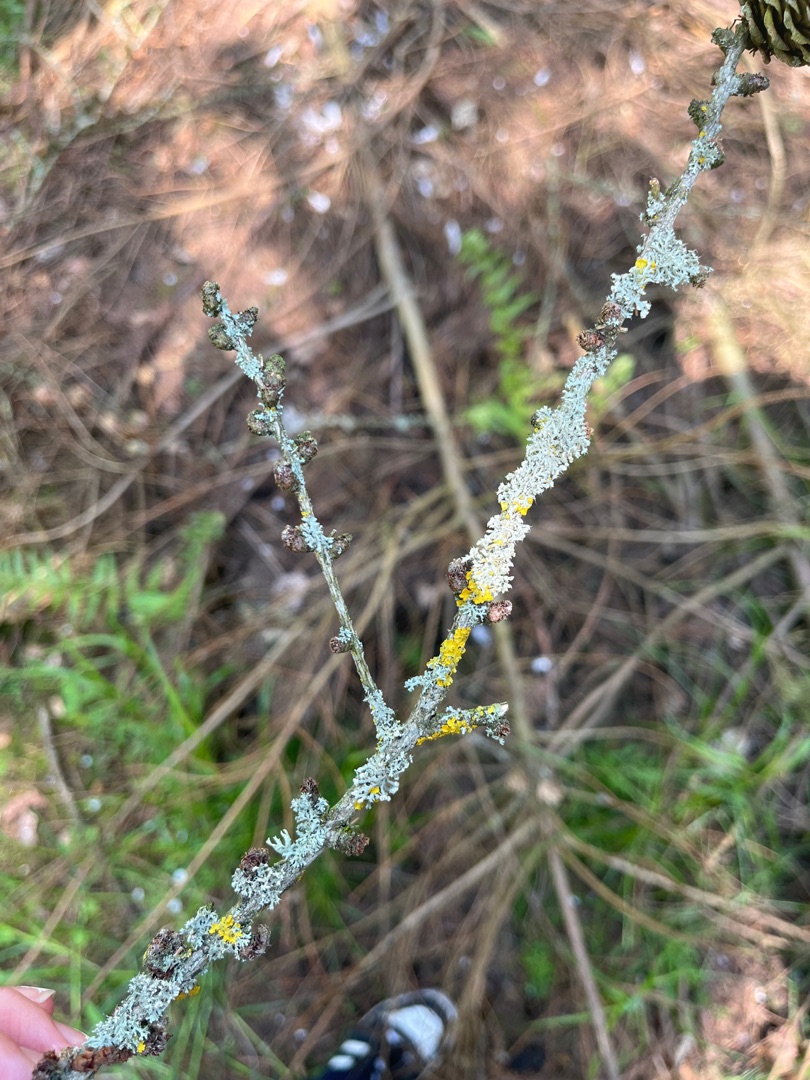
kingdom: Fungi
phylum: Ascomycota
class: Lecanoromycetes
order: Teloschistales
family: Teloschistaceae
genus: Xanthoria
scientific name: Xanthoria parietina
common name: Almindelig væggelav
